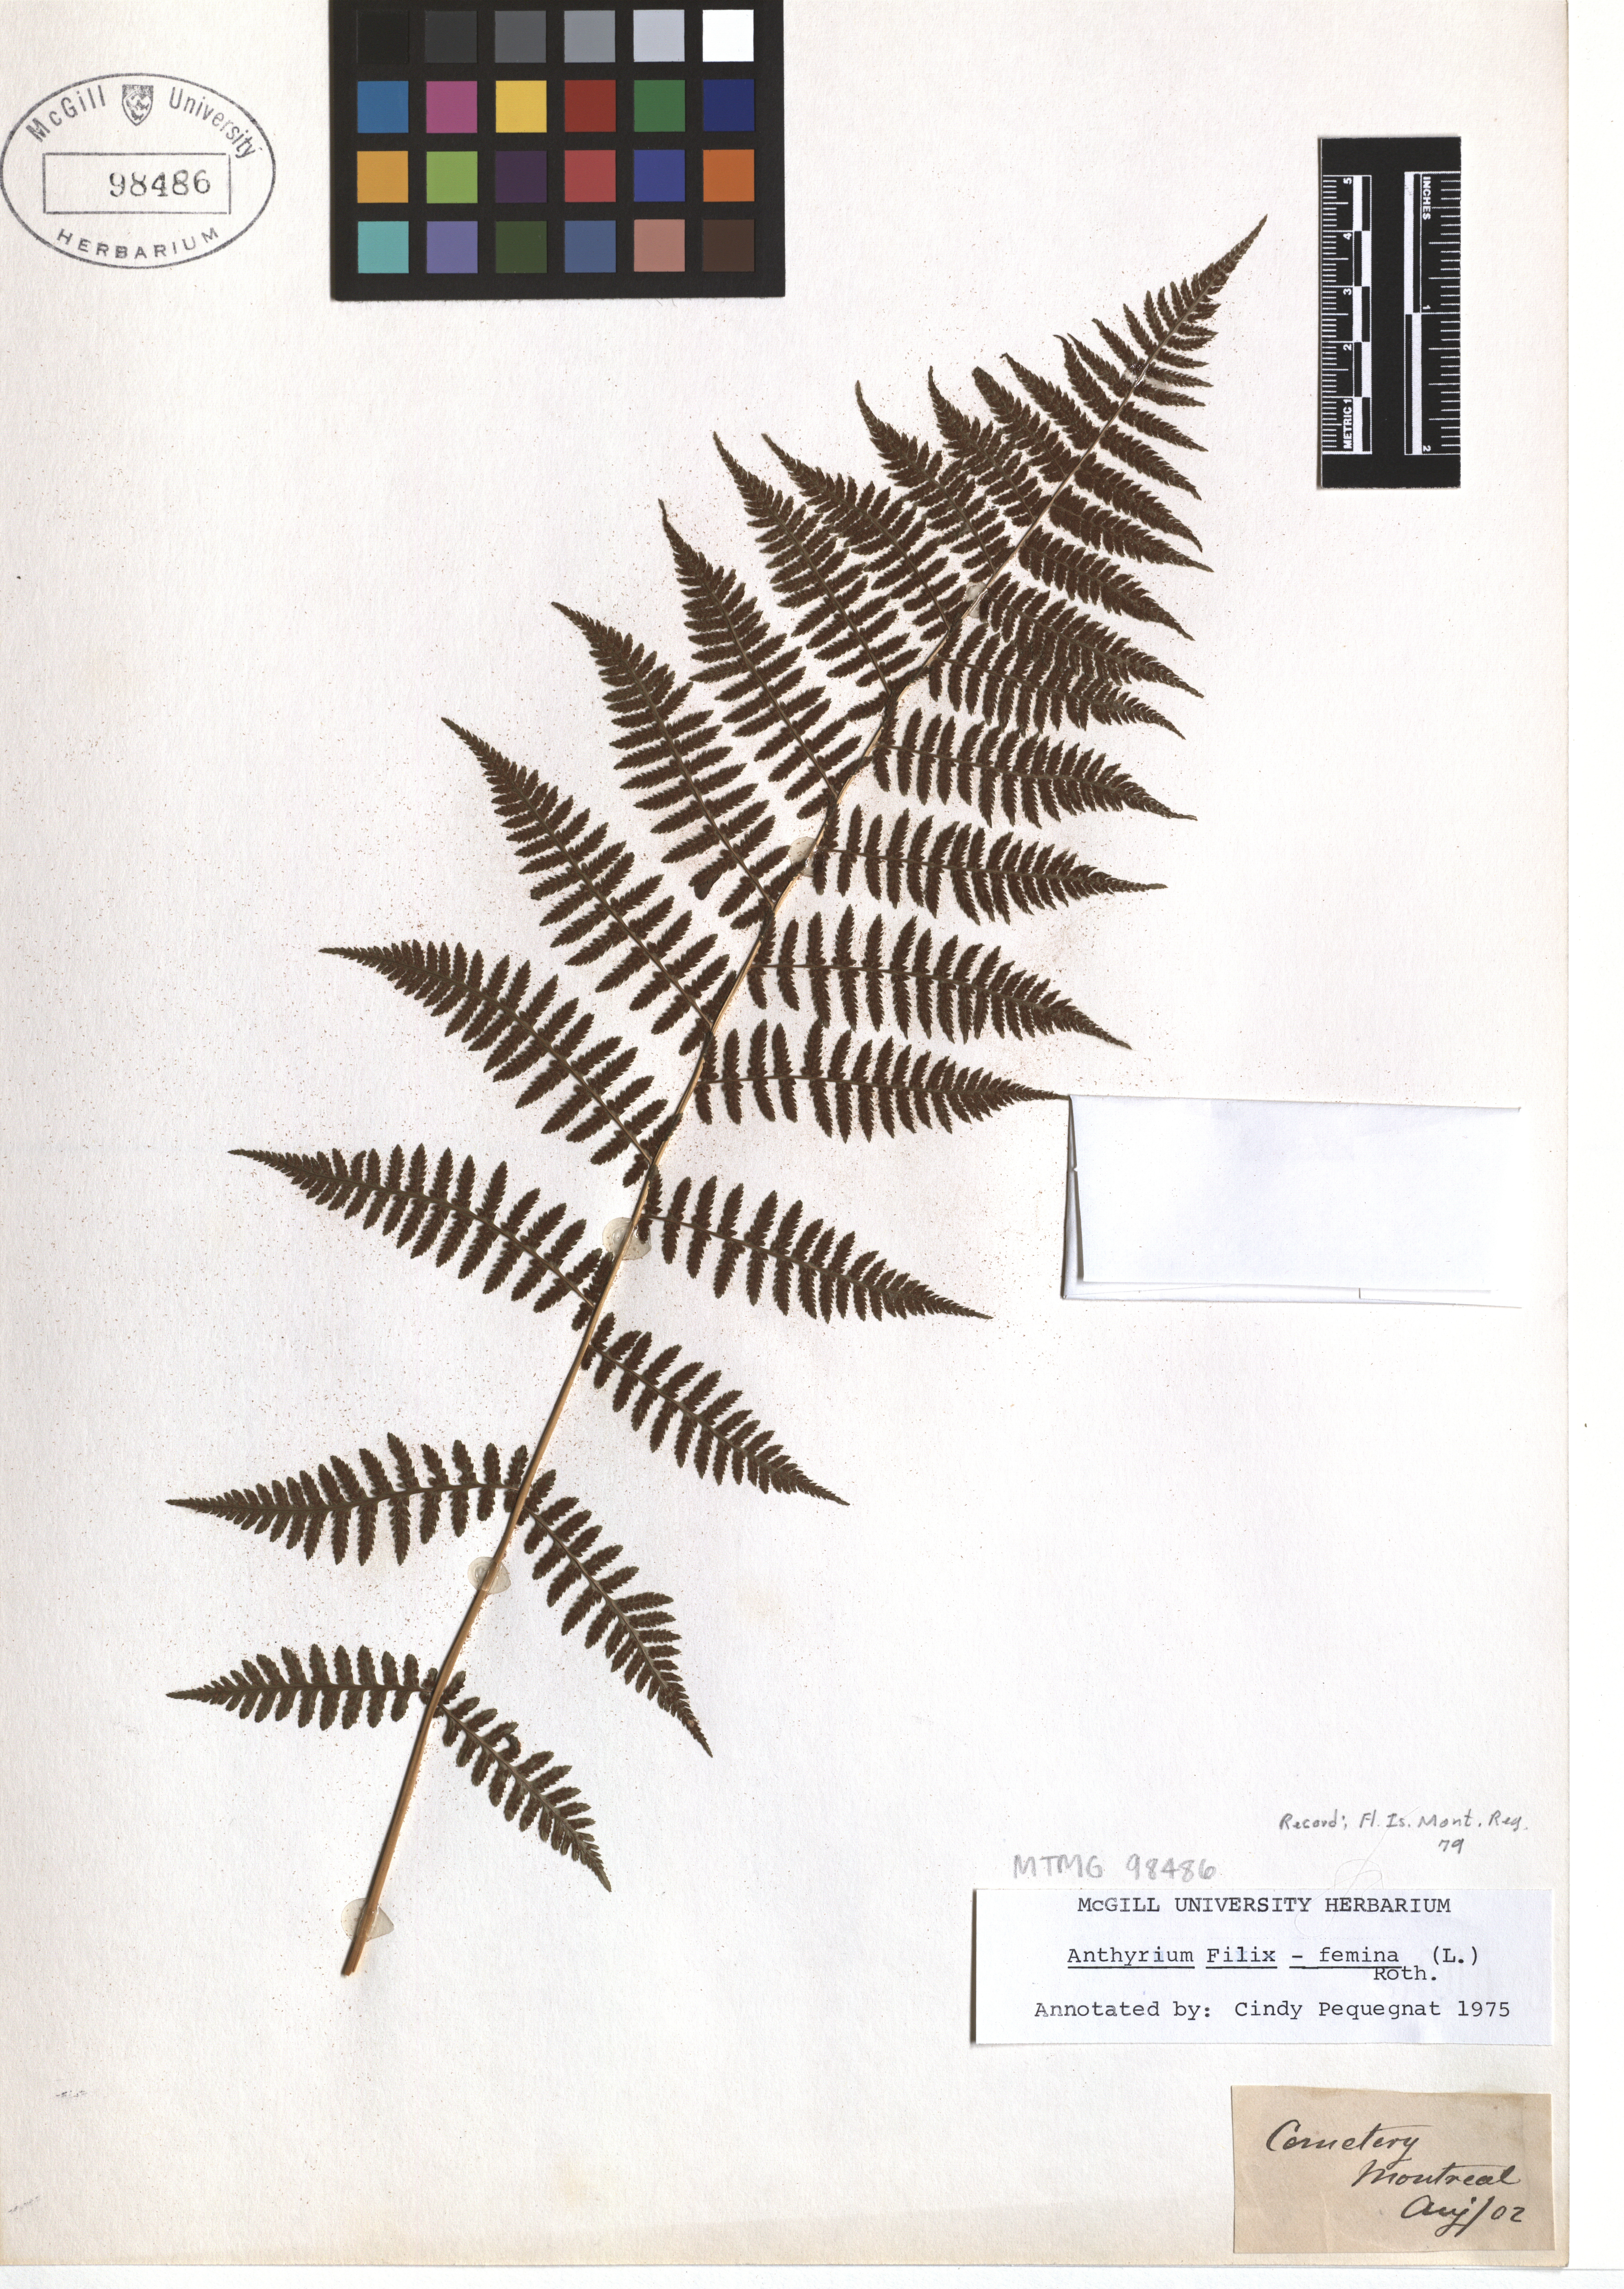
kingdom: Plantae
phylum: Tracheophyta
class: Polypodiopsida
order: Polypodiales
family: Athyriaceae
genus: Athyrium
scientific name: Athyrium filix-femina
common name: Lady fern
